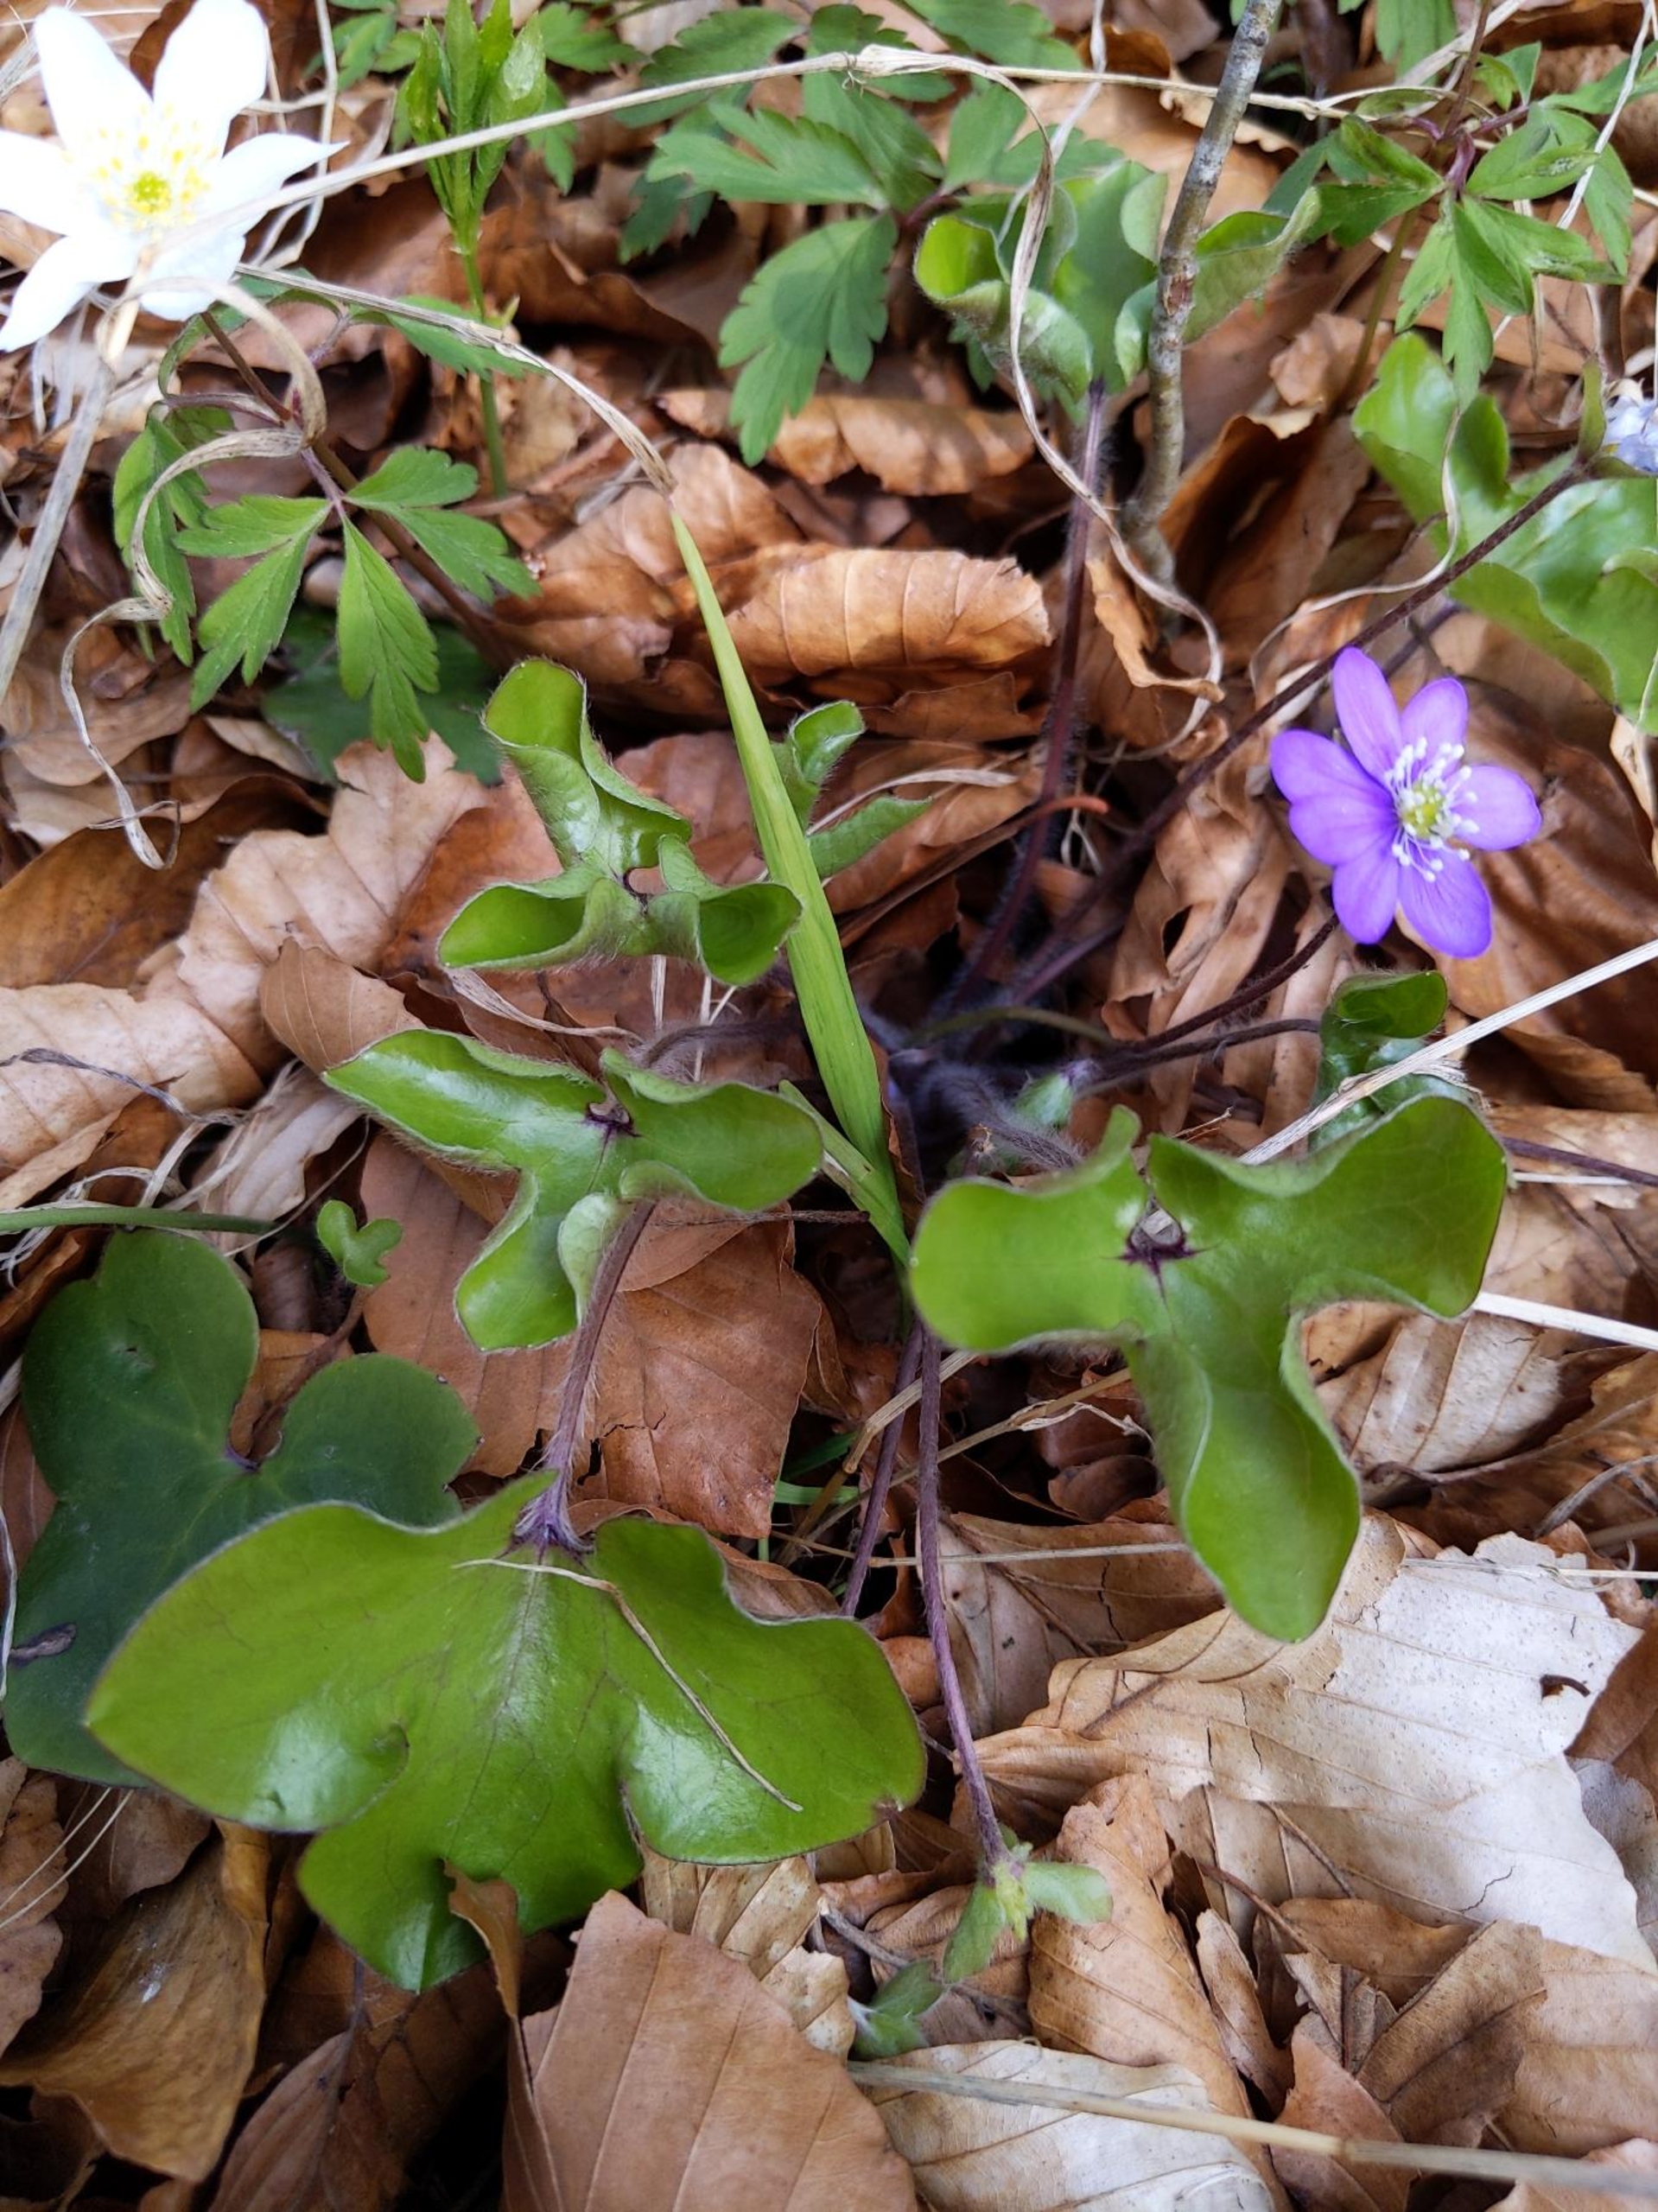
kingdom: Plantae
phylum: Tracheophyta
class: Magnoliopsida
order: Ranunculales
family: Ranunculaceae
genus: Hepatica
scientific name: Hepatica nobilis
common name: Blå anemone
